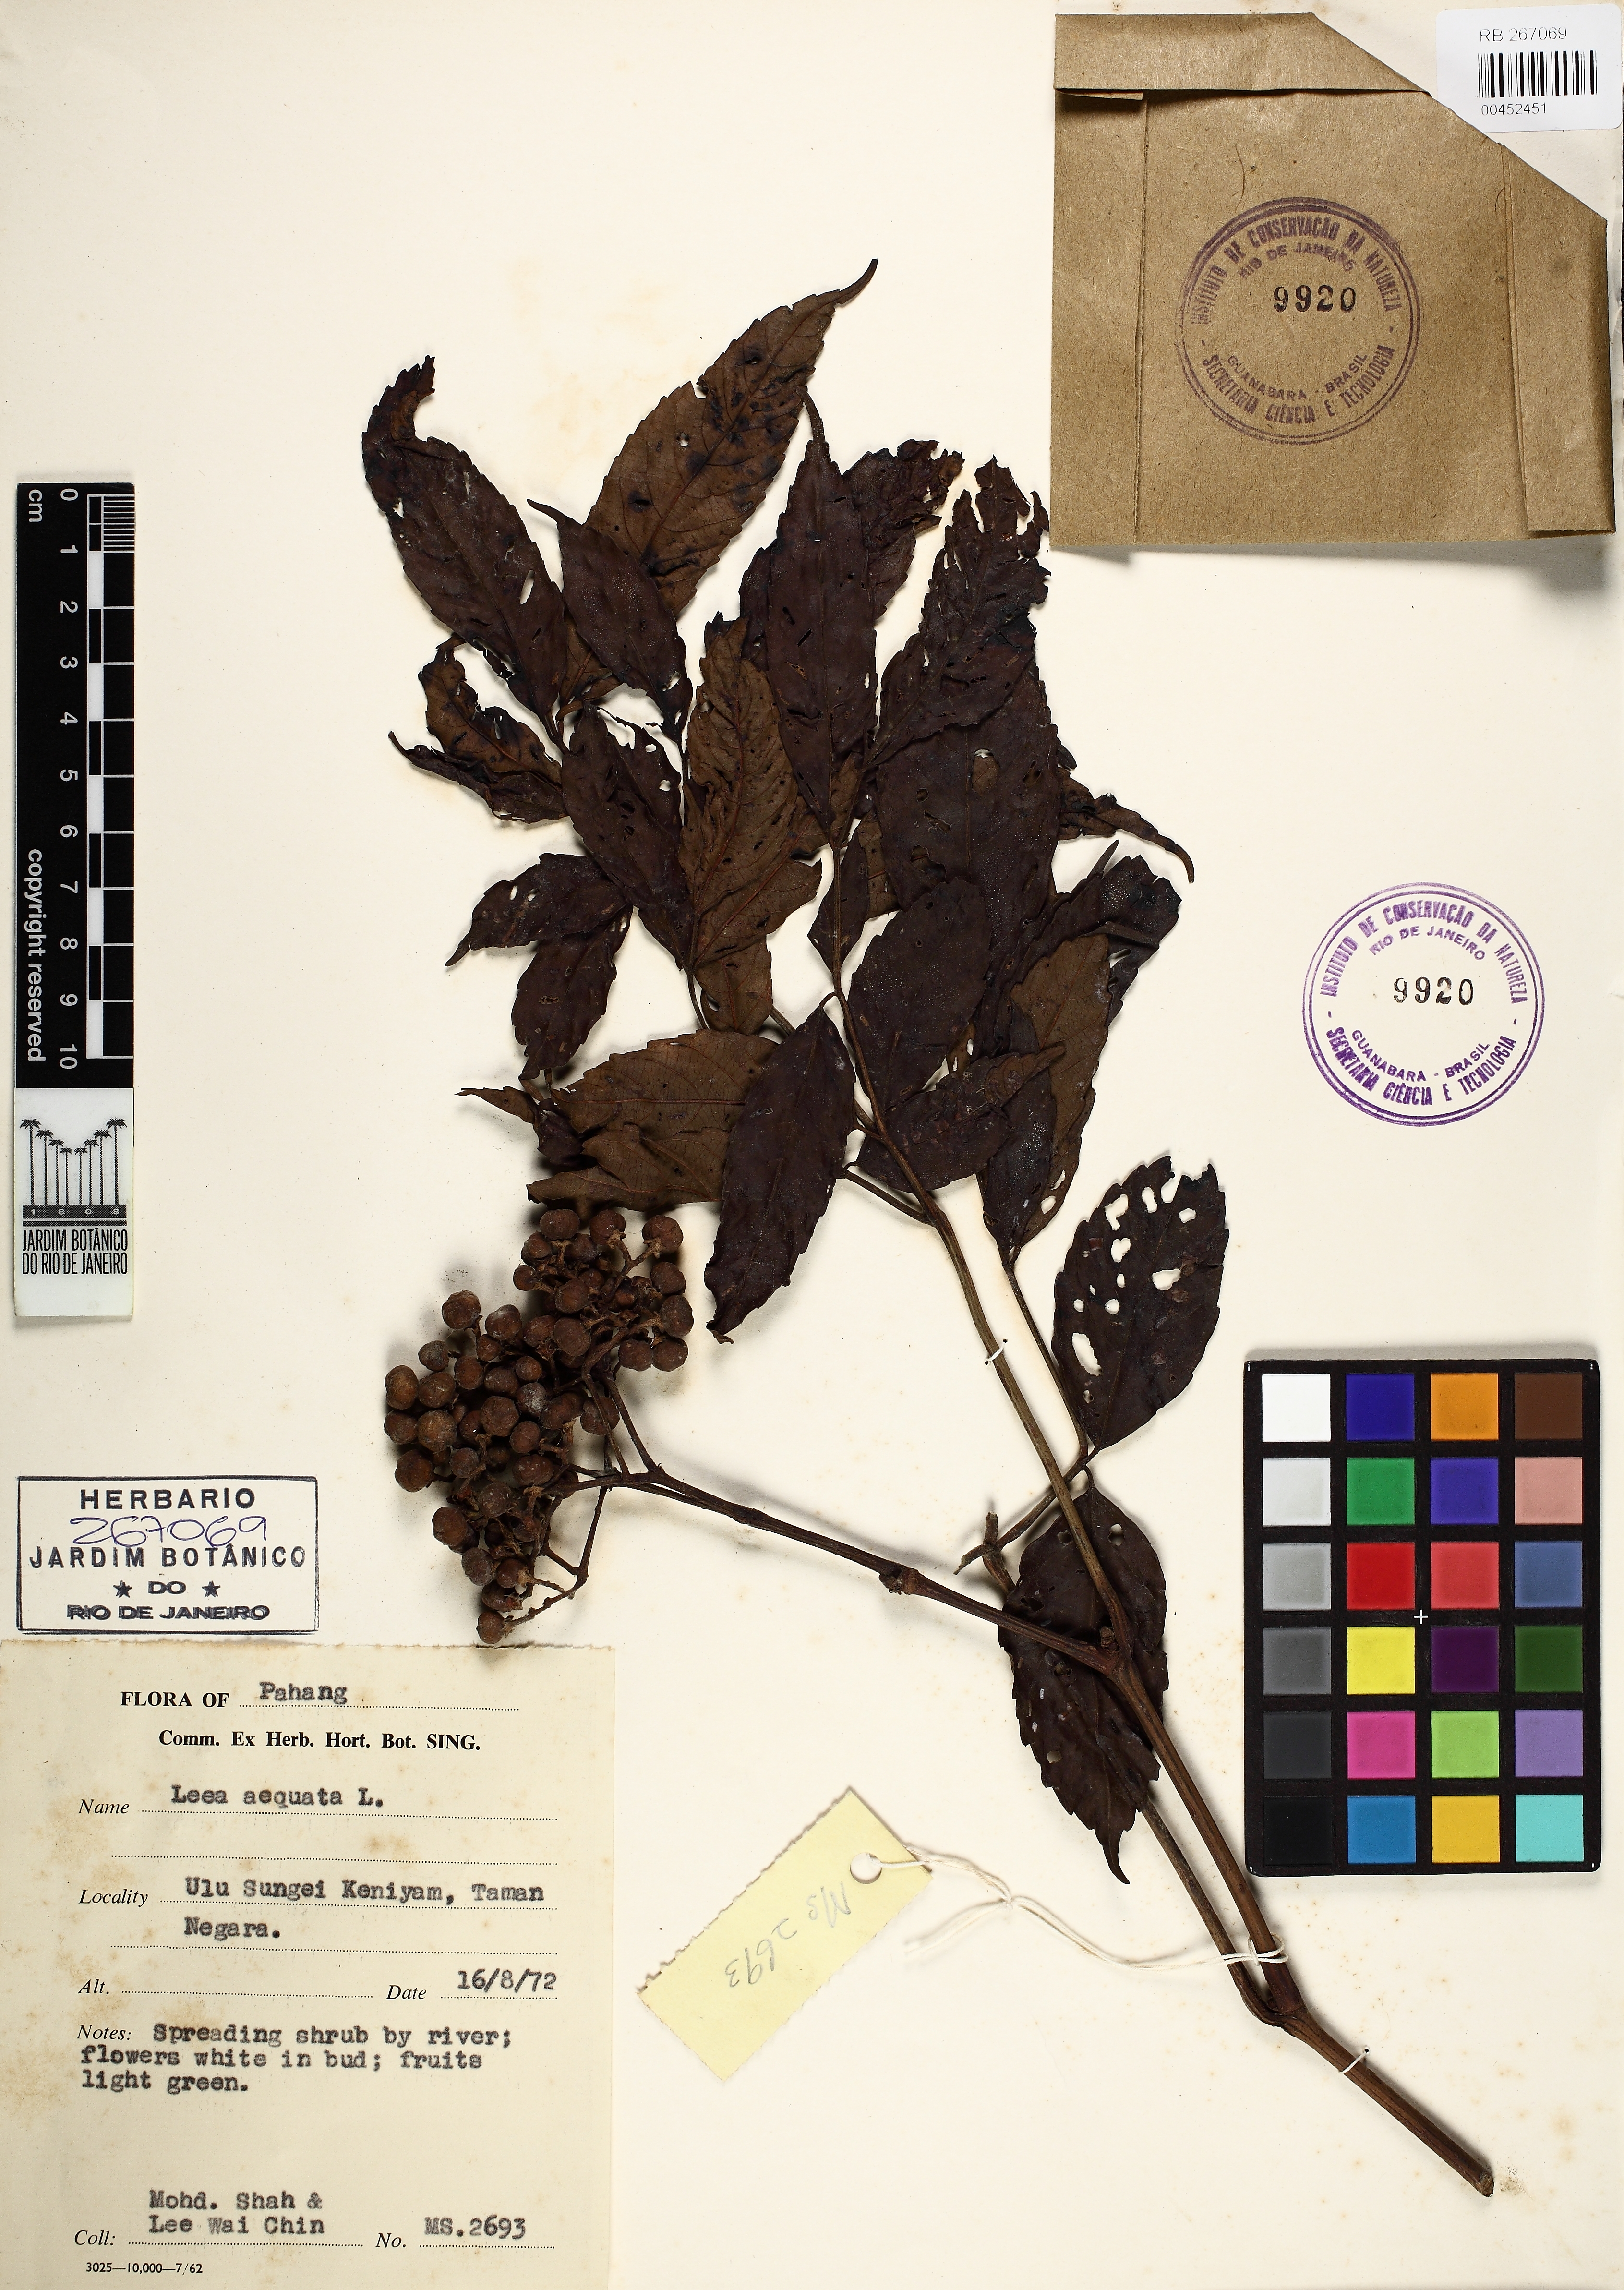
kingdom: Plantae
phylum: Tracheophyta
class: Magnoliopsida
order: Vitales
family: Vitaceae
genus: Leea
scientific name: Leea aequata
